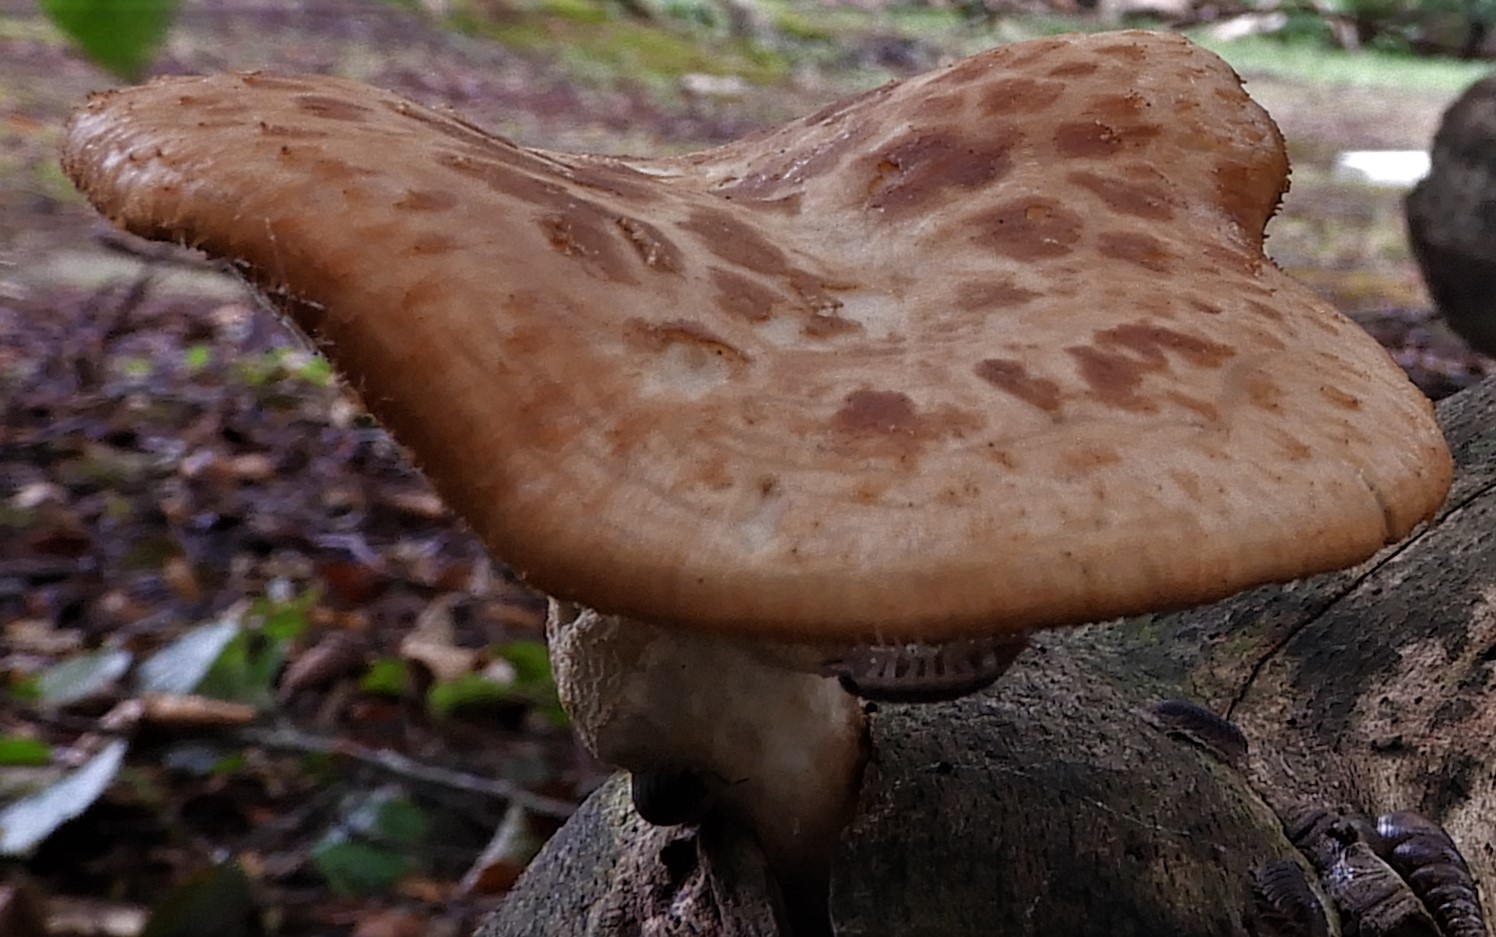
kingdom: Fungi
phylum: Basidiomycota
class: Agaricomycetes
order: Polyporales
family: Polyporaceae
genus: Polyporus
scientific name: Polyporus tuberaster
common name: knoldet stilkporesvamp
